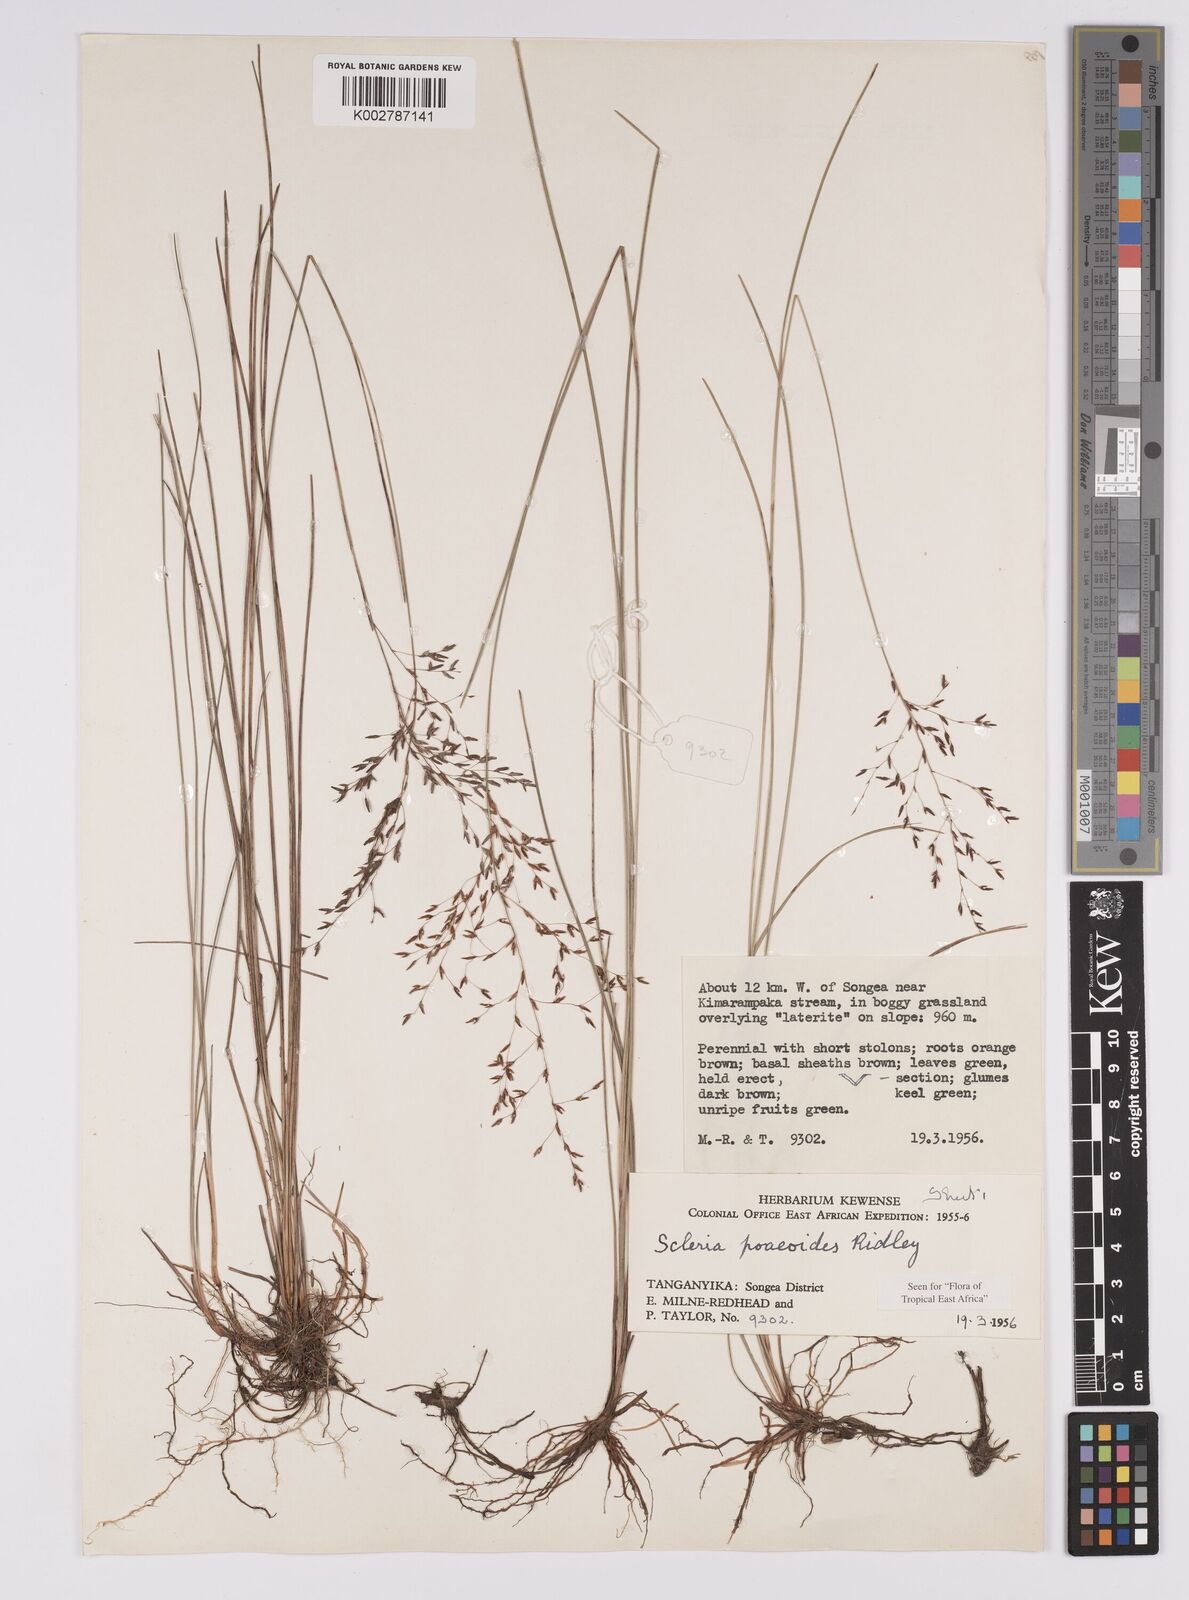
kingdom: Plantae
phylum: Tracheophyta
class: Liliopsida
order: Poales
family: Cyperaceae
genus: Scleria
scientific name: Scleria pooides
